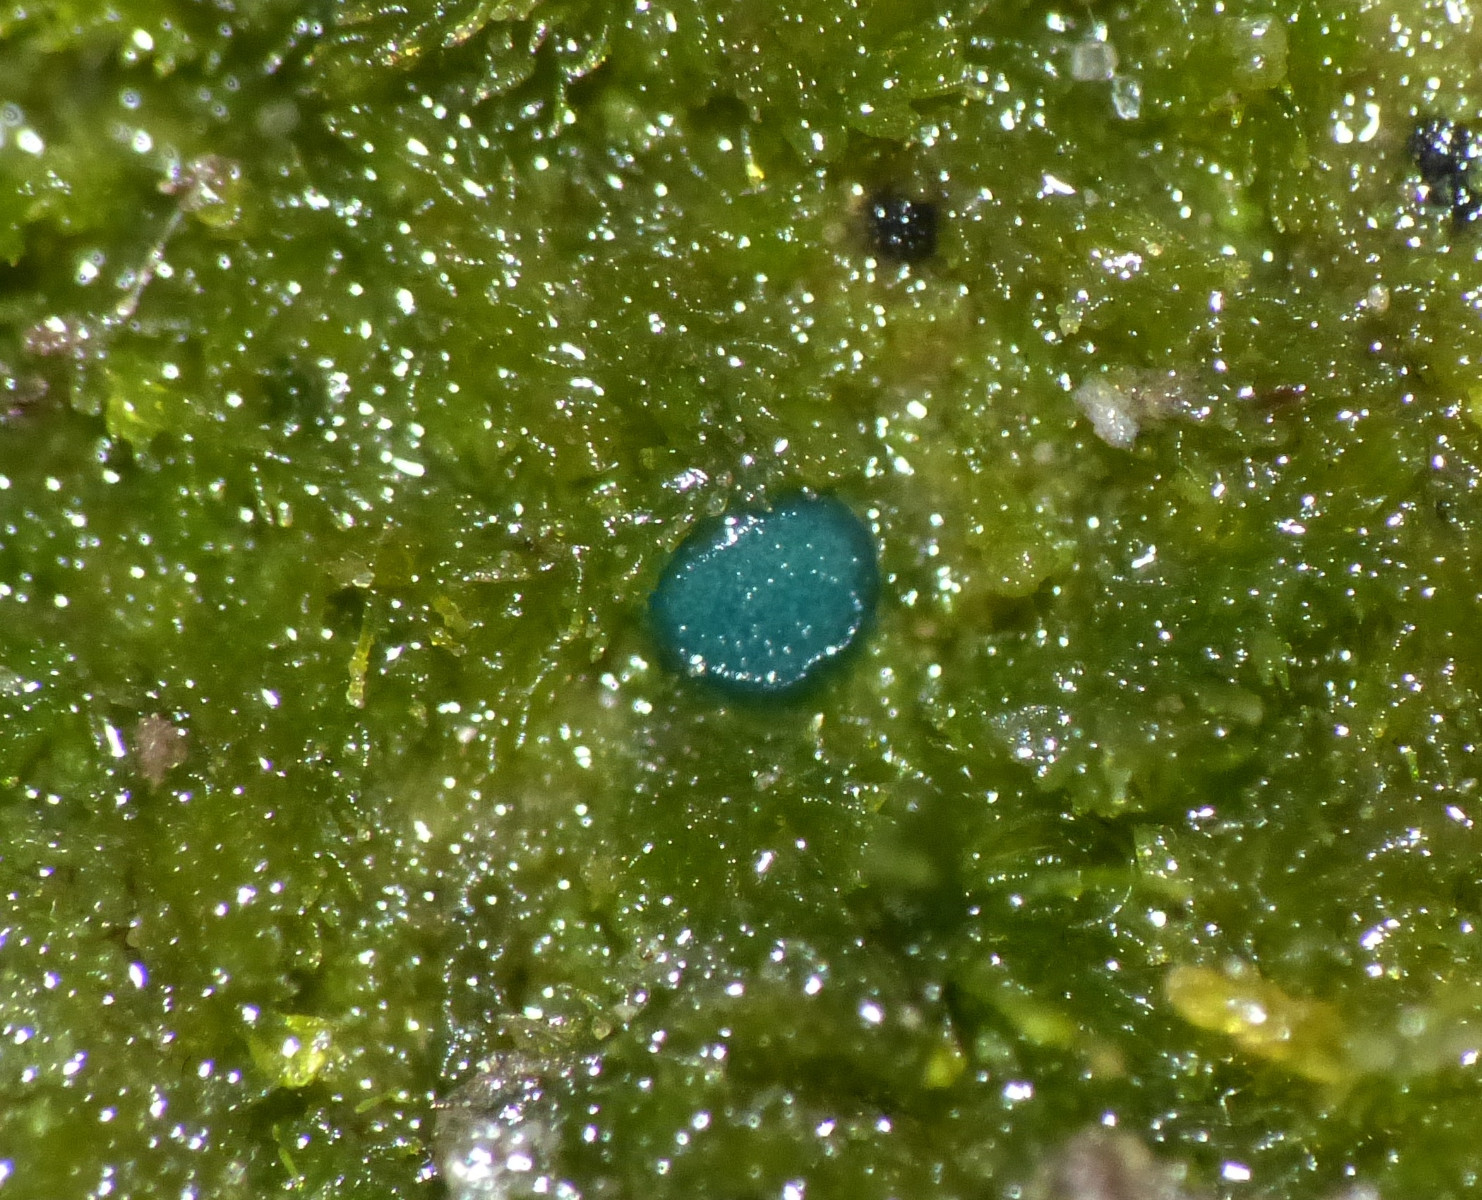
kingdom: Fungi
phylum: Ascomycota
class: Leotiomycetes
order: Leotiales
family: Mniaeciaceae
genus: Mniaecia
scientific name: Mniaecia jungermanniae
